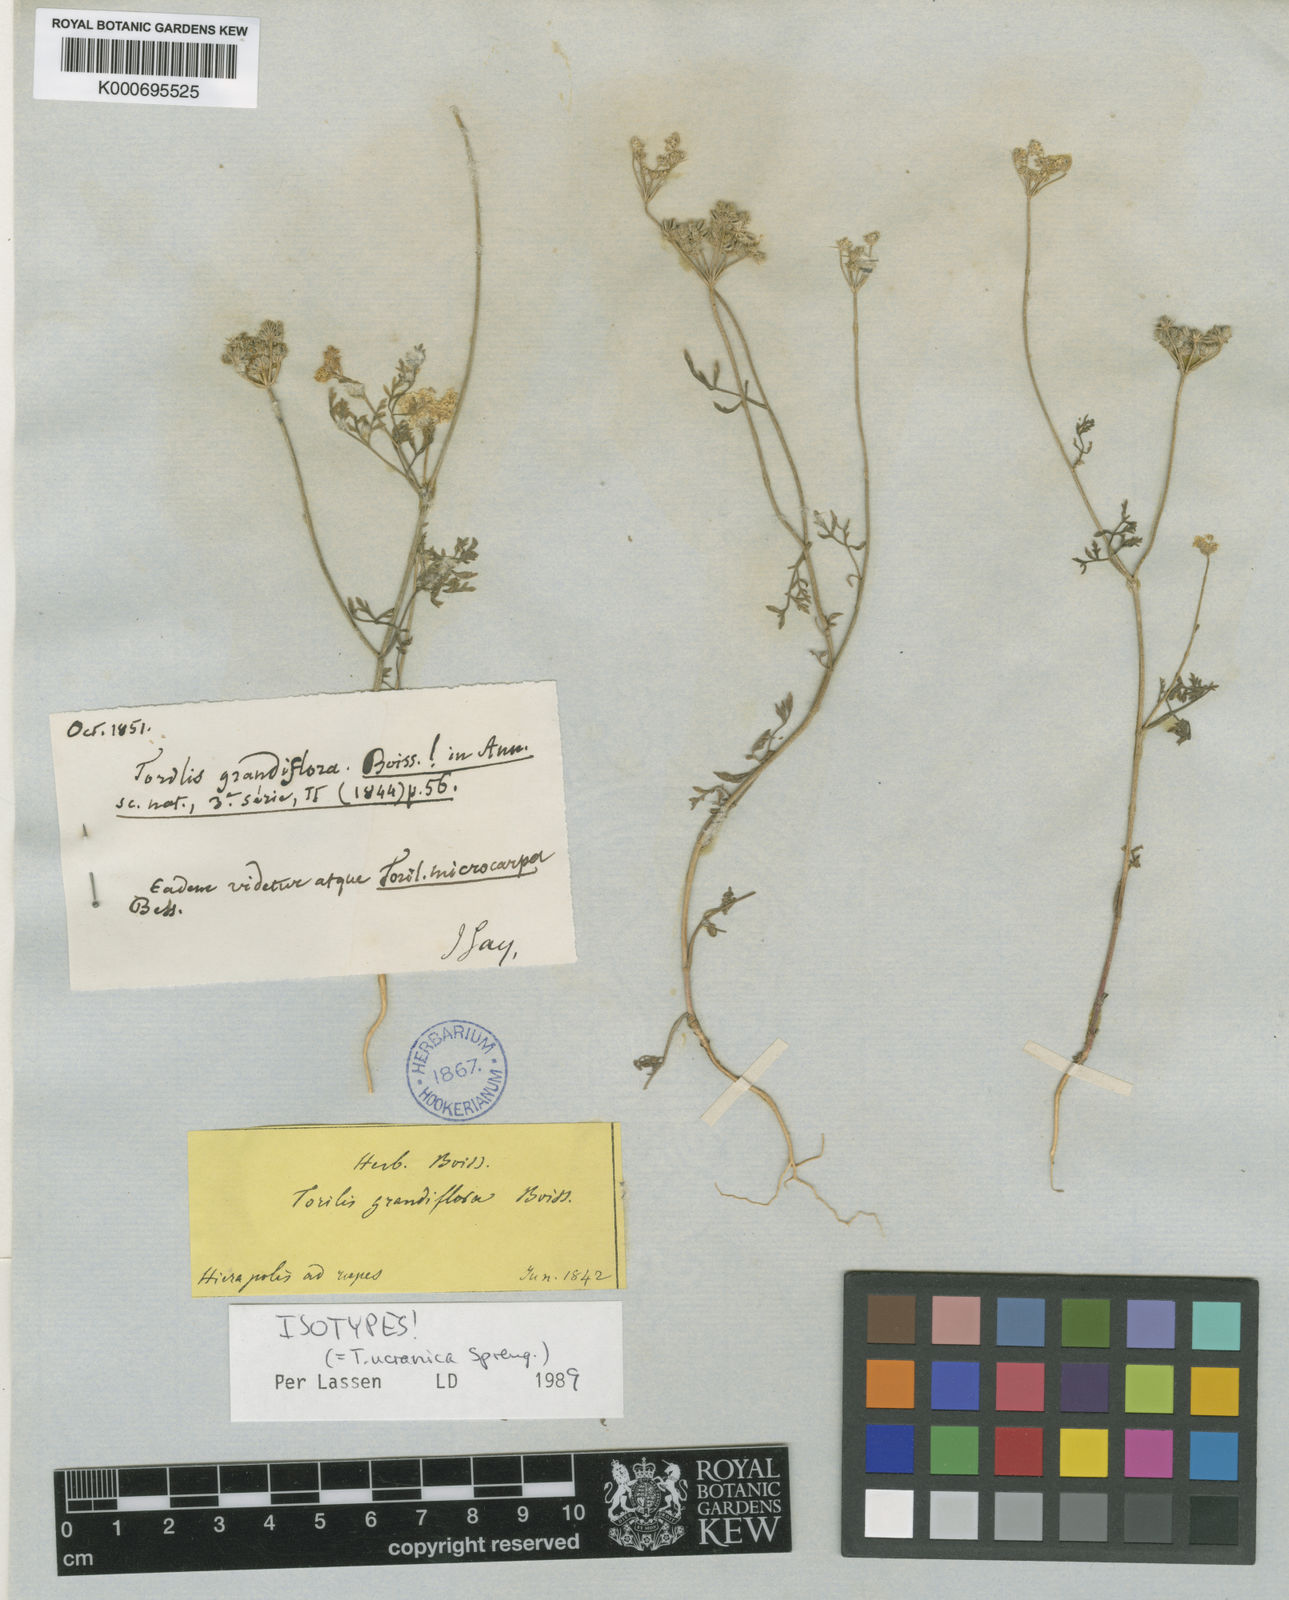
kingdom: Plantae
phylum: Tracheophyta
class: Magnoliopsida
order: Apiales
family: Apiaceae
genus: Torilis
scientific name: Torilis ucranica
